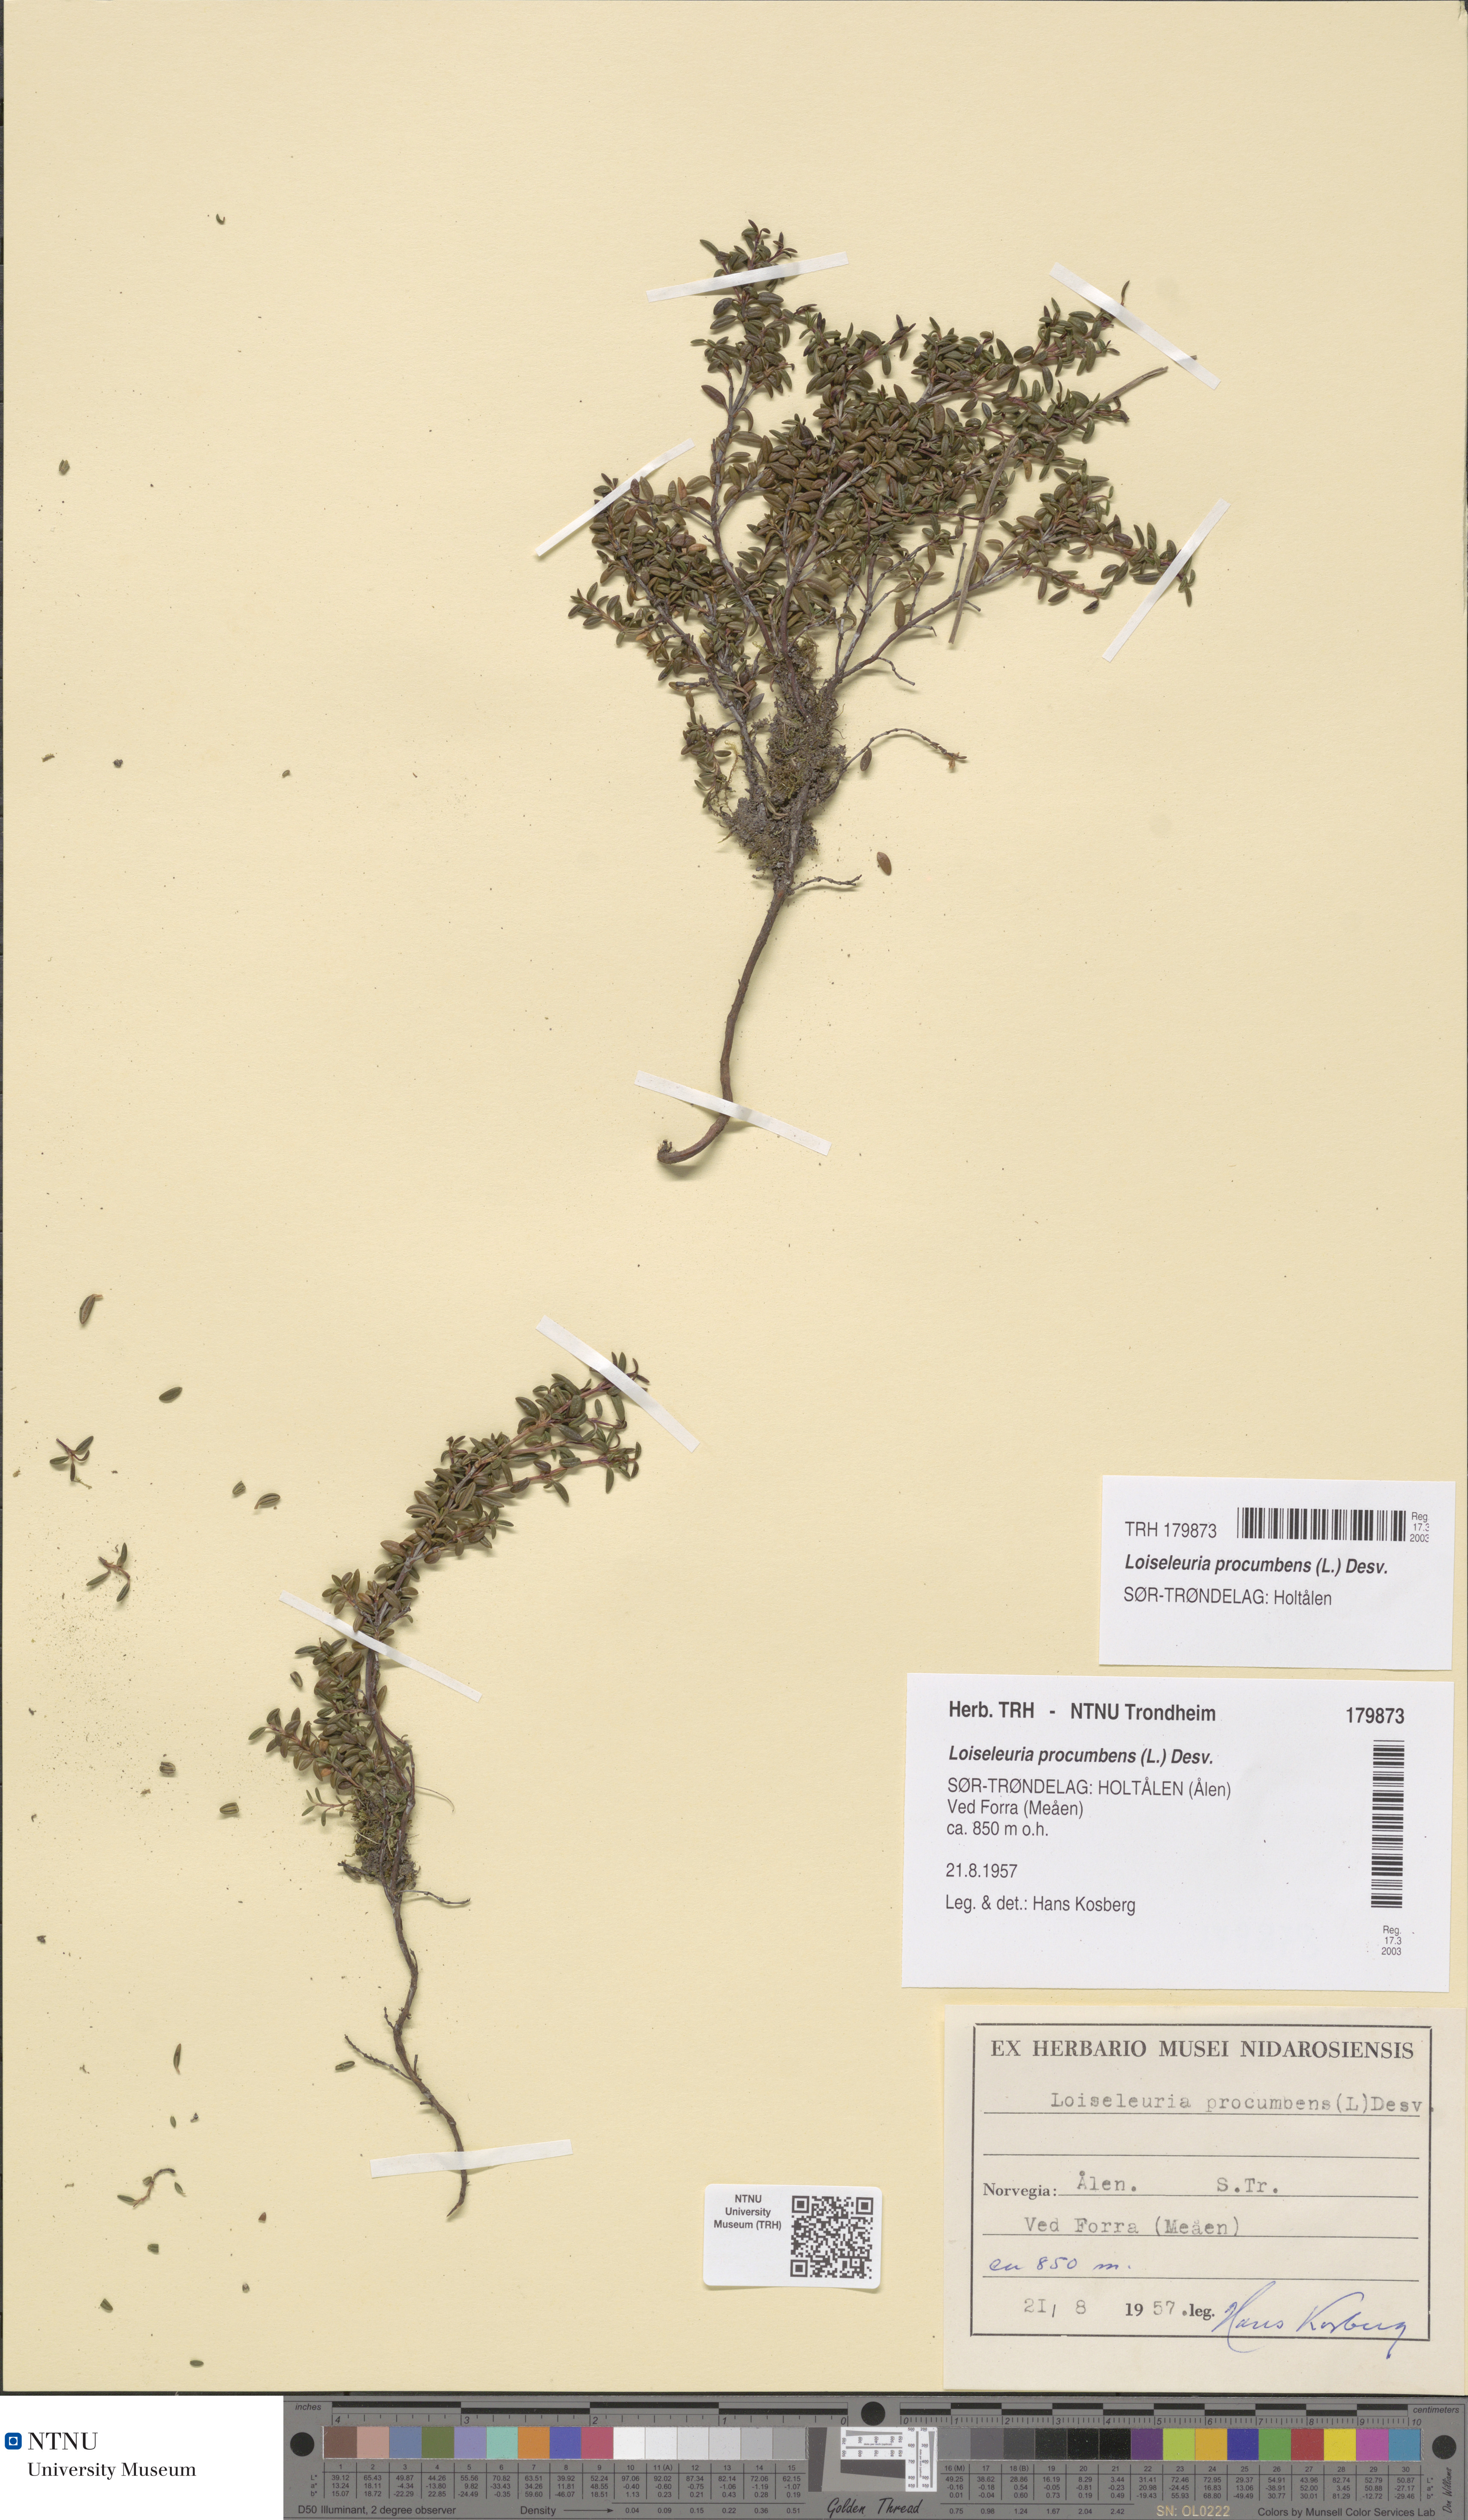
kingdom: Plantae
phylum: Tracheophyta
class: Magnoliopsida
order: Ericales
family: Ericaceae
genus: Kalmia
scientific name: Kalmia procumbens
